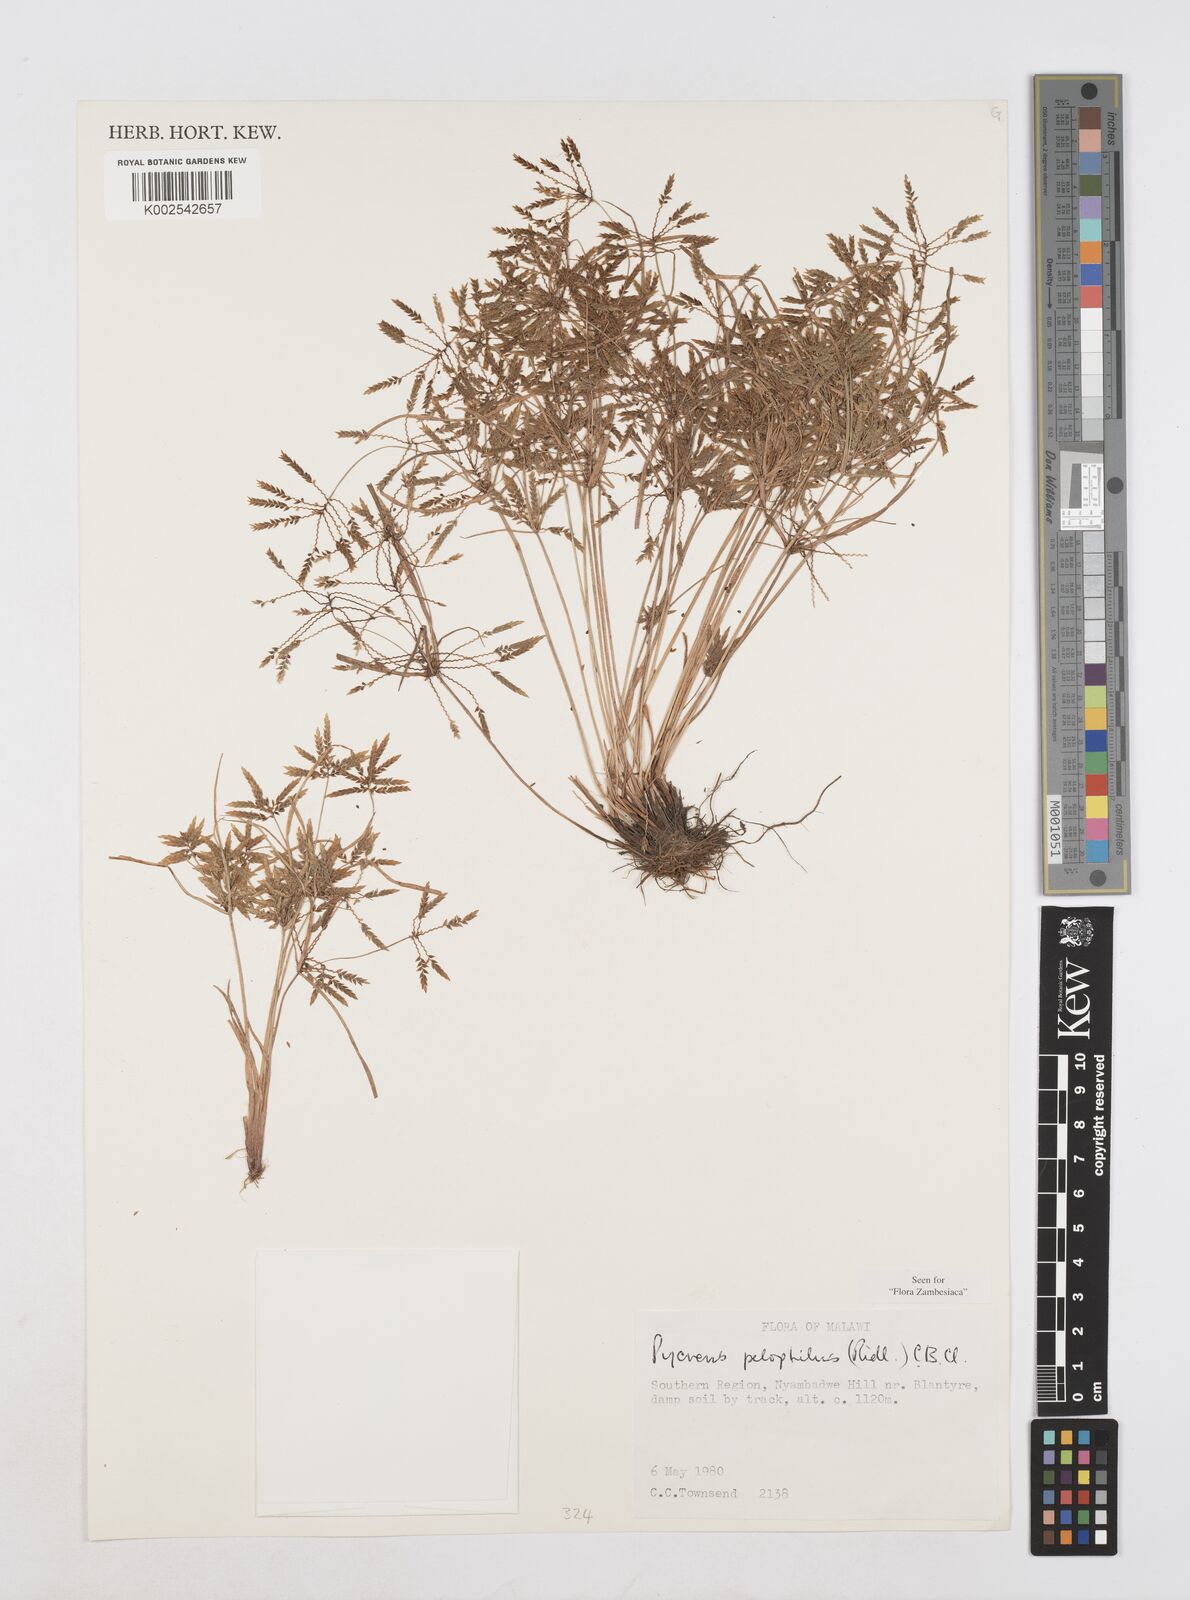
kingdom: Plantae
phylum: Tracheophyta
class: Liliopsida
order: Poales
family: Cyperaceae
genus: Cyperus
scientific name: Cyperus pelophilus
